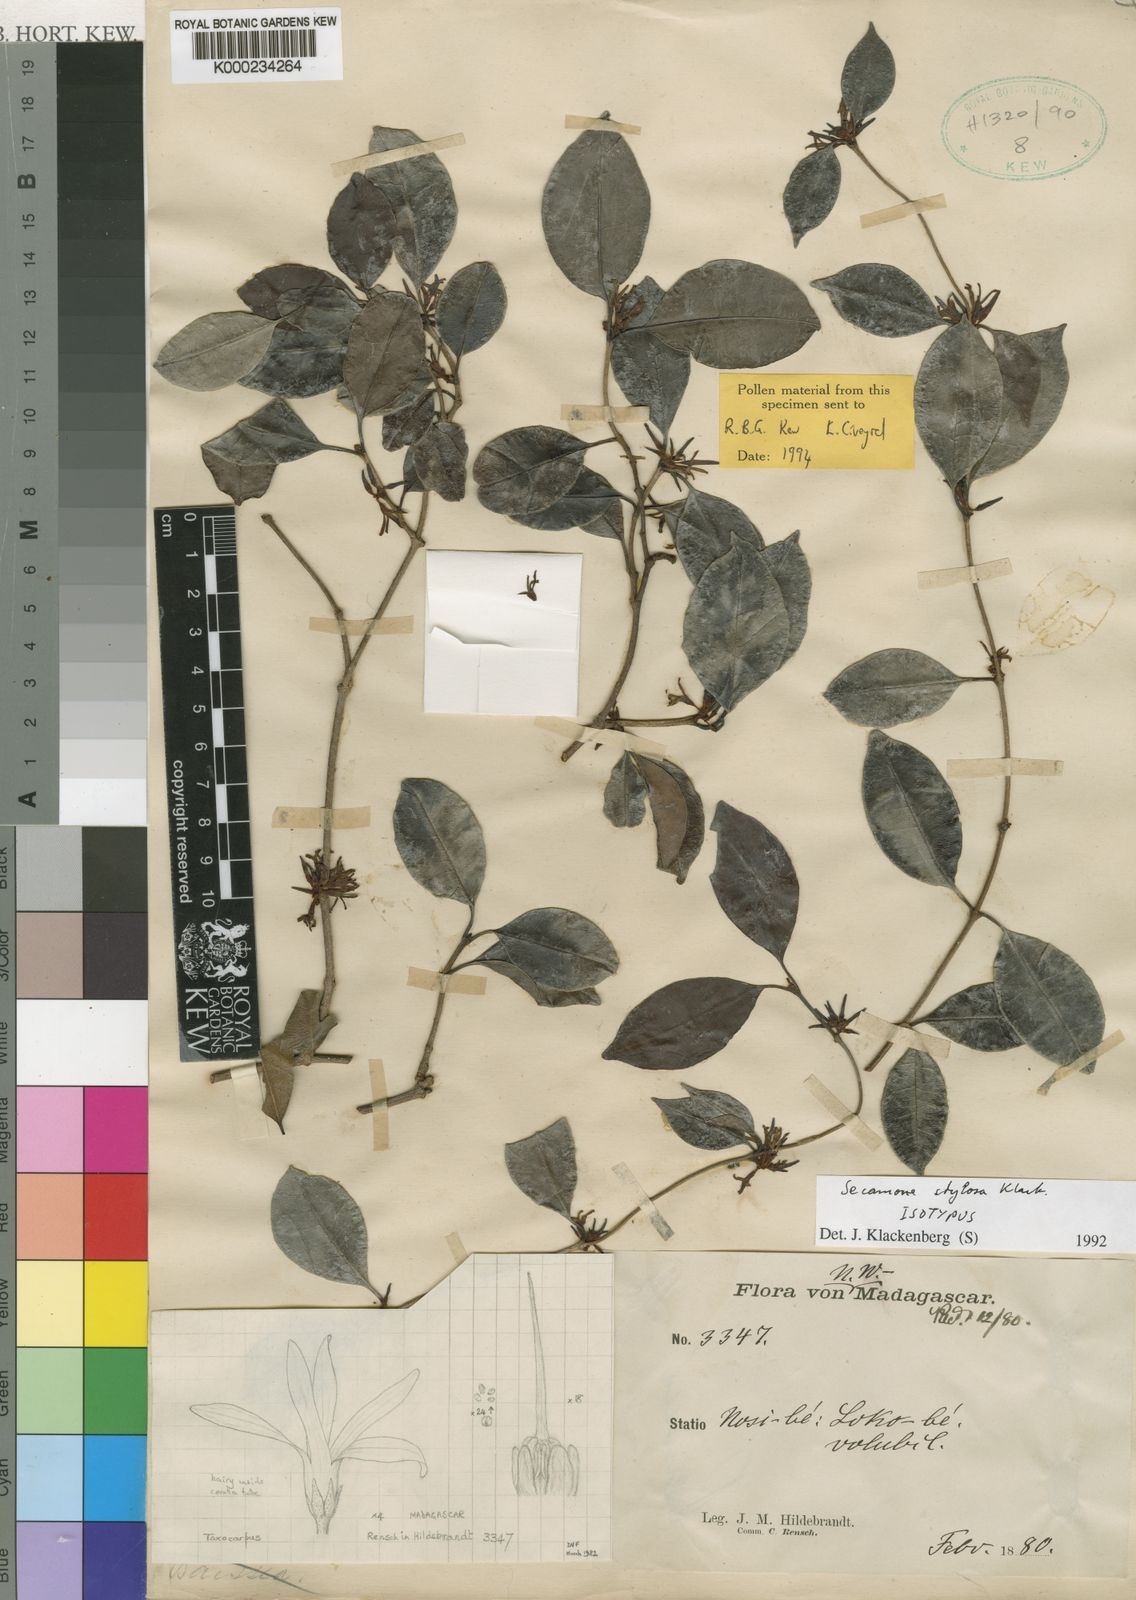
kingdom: Plantae
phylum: Tracheophyta
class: Magnoliopsida
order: Gentianales
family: Apocynaceae
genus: Secamone
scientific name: Secamone sulfurea
